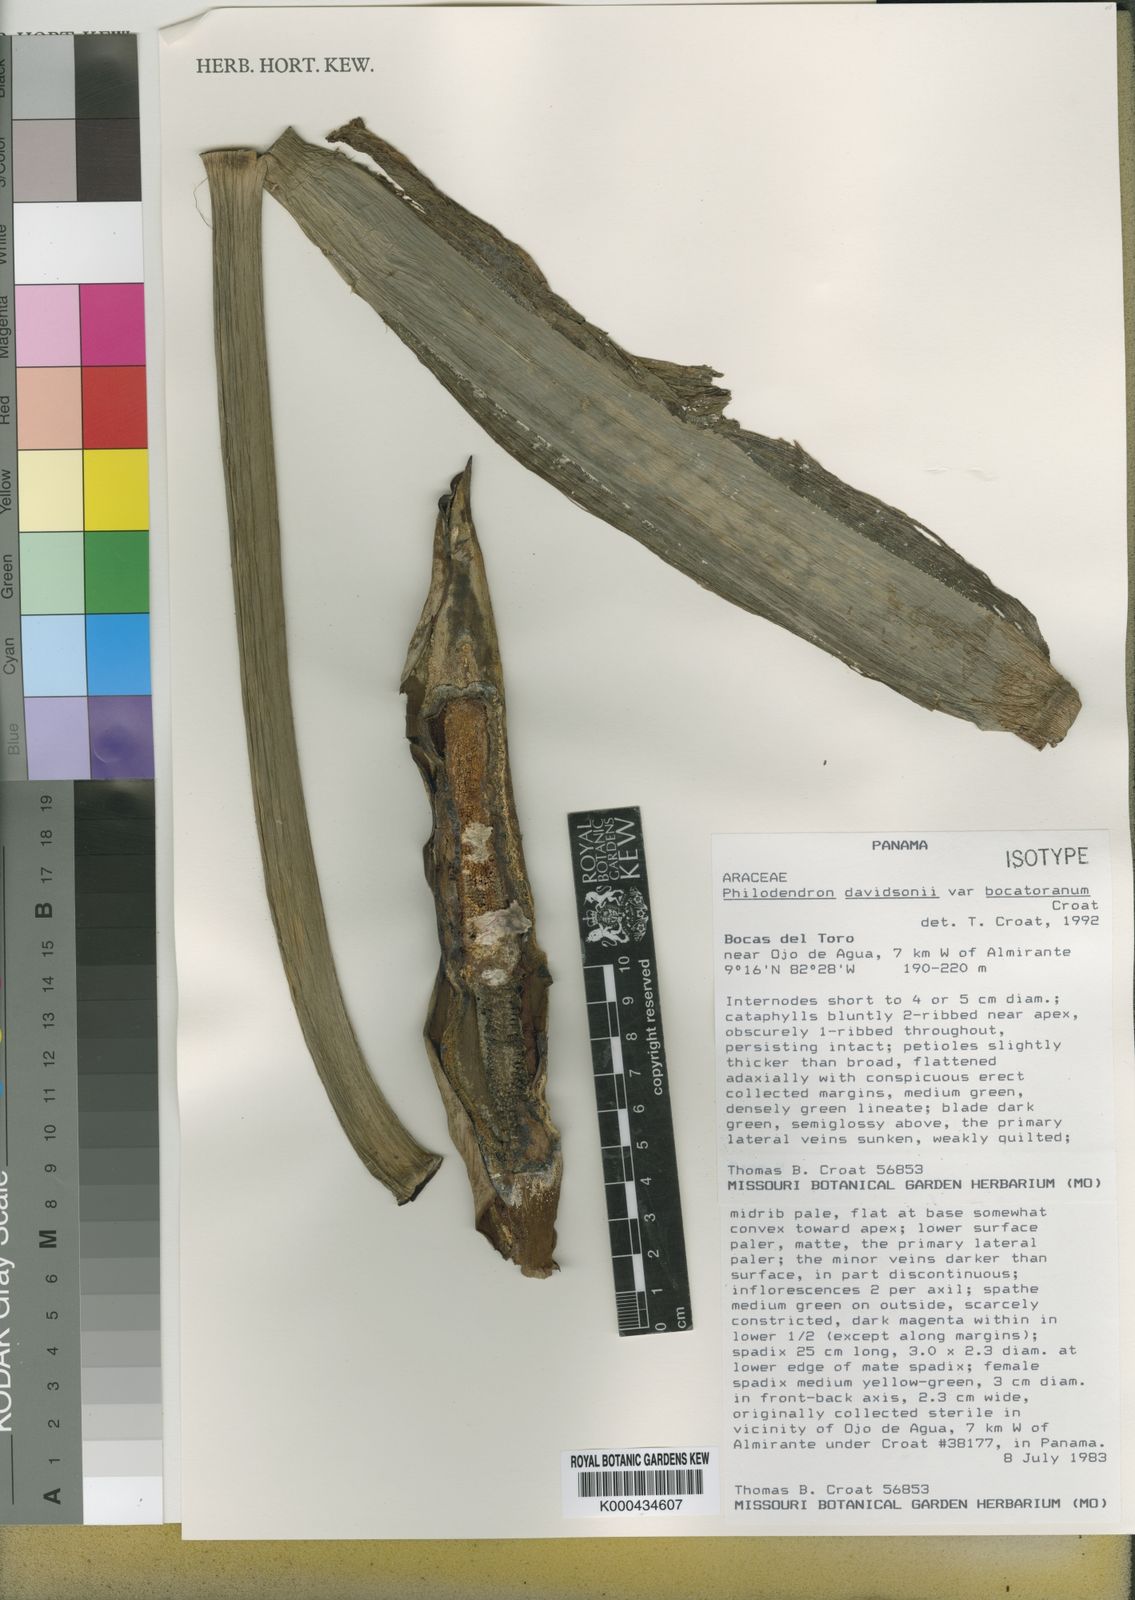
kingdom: Plantae
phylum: Tracheophyta
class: Liliopsida
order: Alismatales
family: Araceae
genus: Philodendron
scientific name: Philodendron davidsonii
